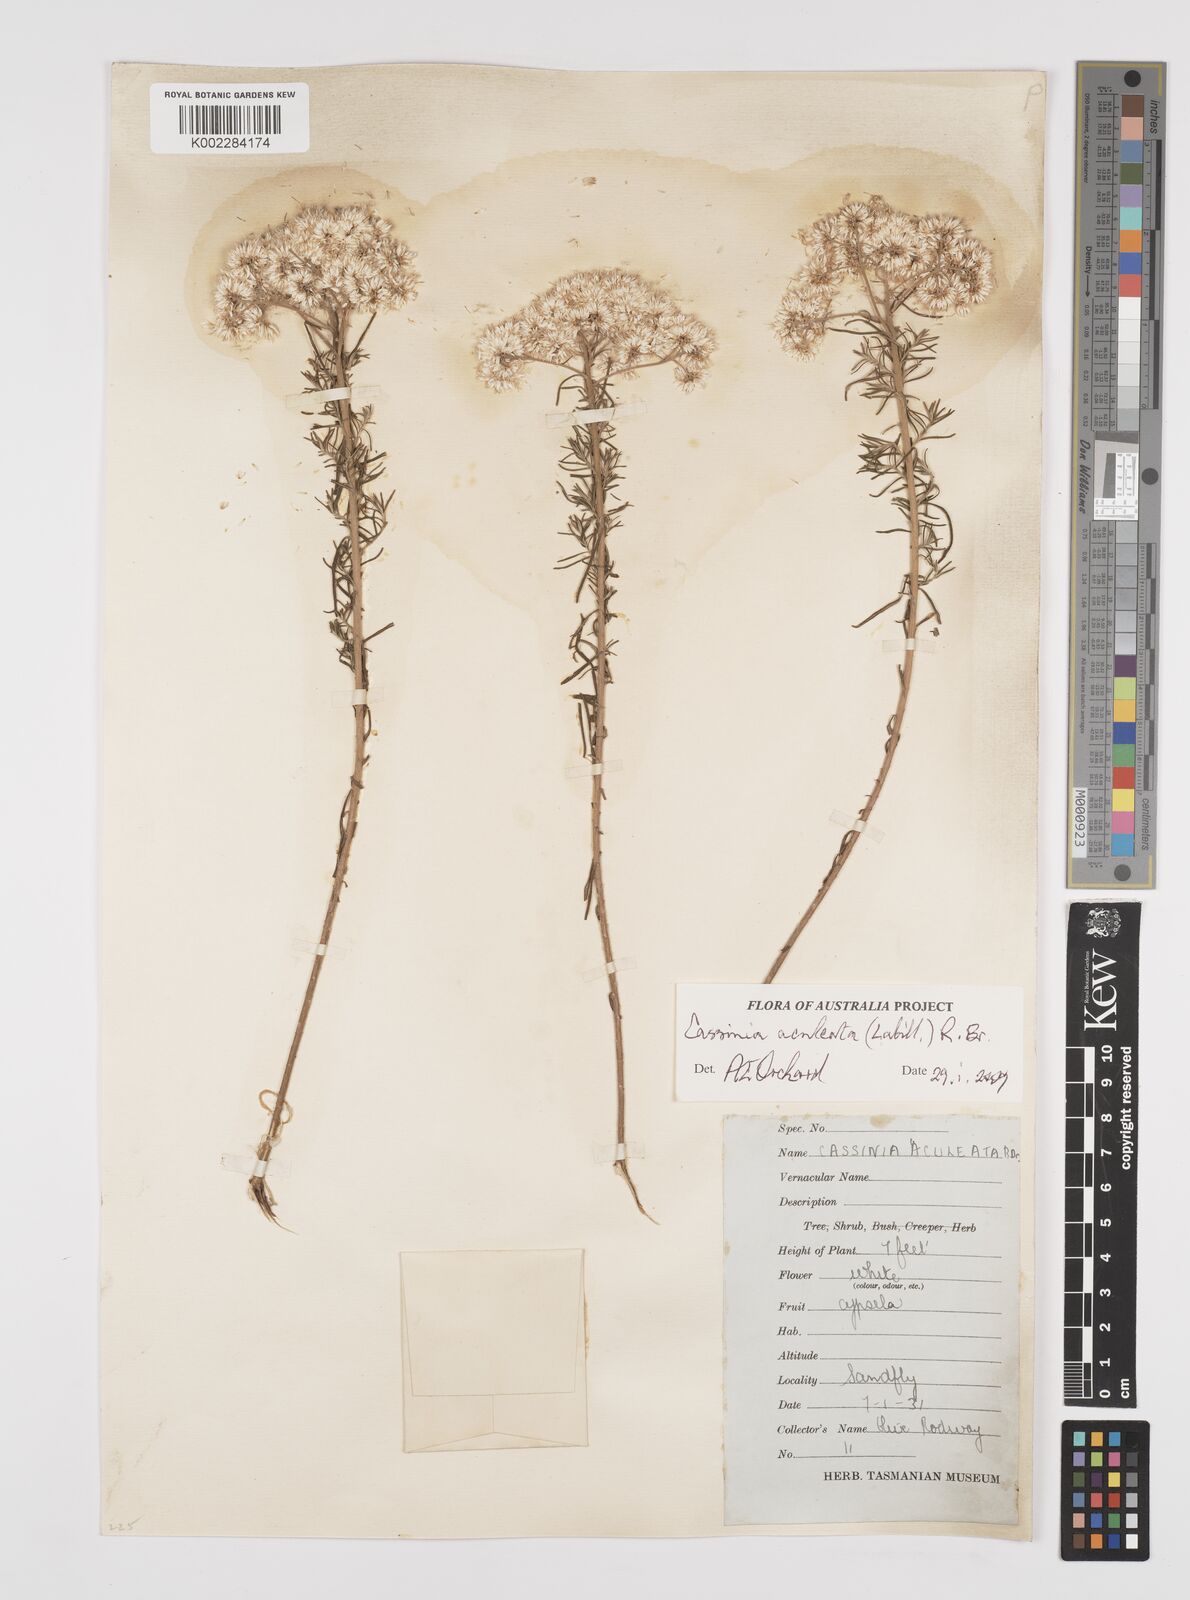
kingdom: Plantae
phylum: Tracheophyta
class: Magnoliopsida
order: Asterales
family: Asteraceae
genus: Cassinia
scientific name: Cassinia aculeata
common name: Australian tauhinu
